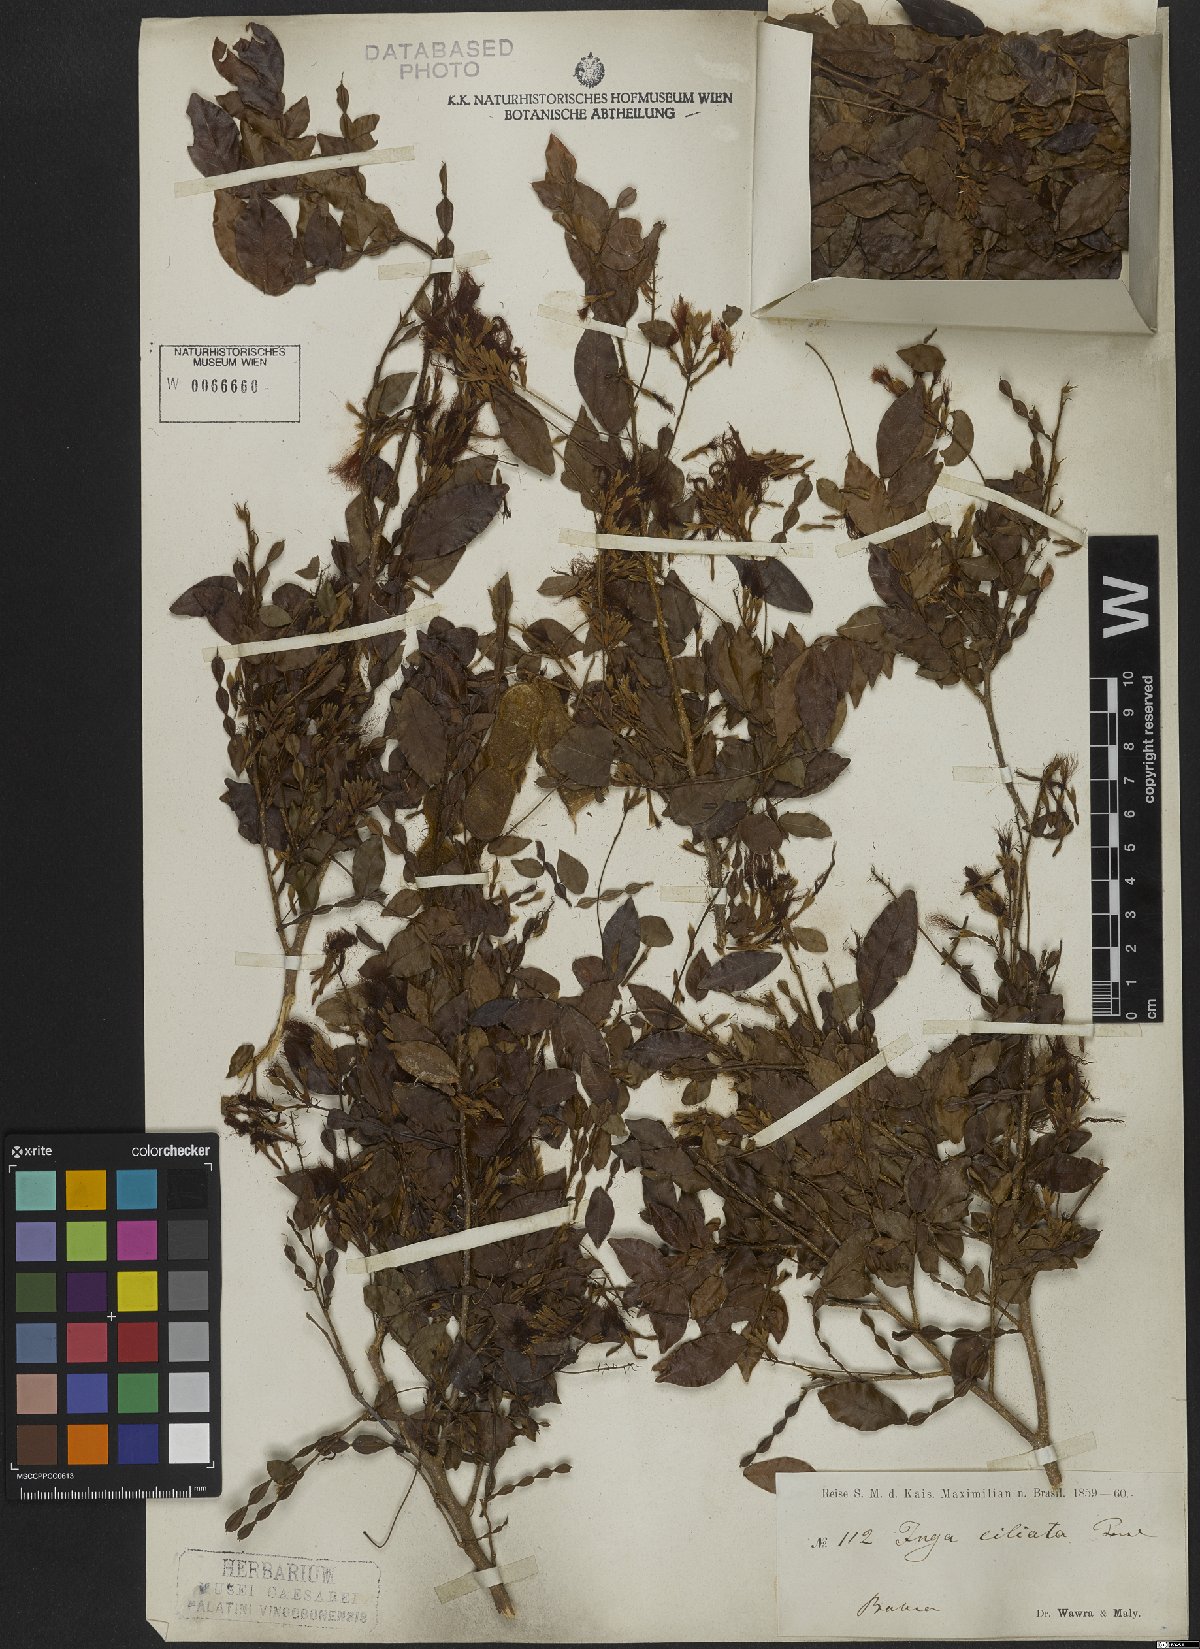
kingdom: Plantae
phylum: Tracheophyta
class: Magnoliopsida
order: Fabales
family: Fabaceae
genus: Inga
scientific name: Inga ciliata
